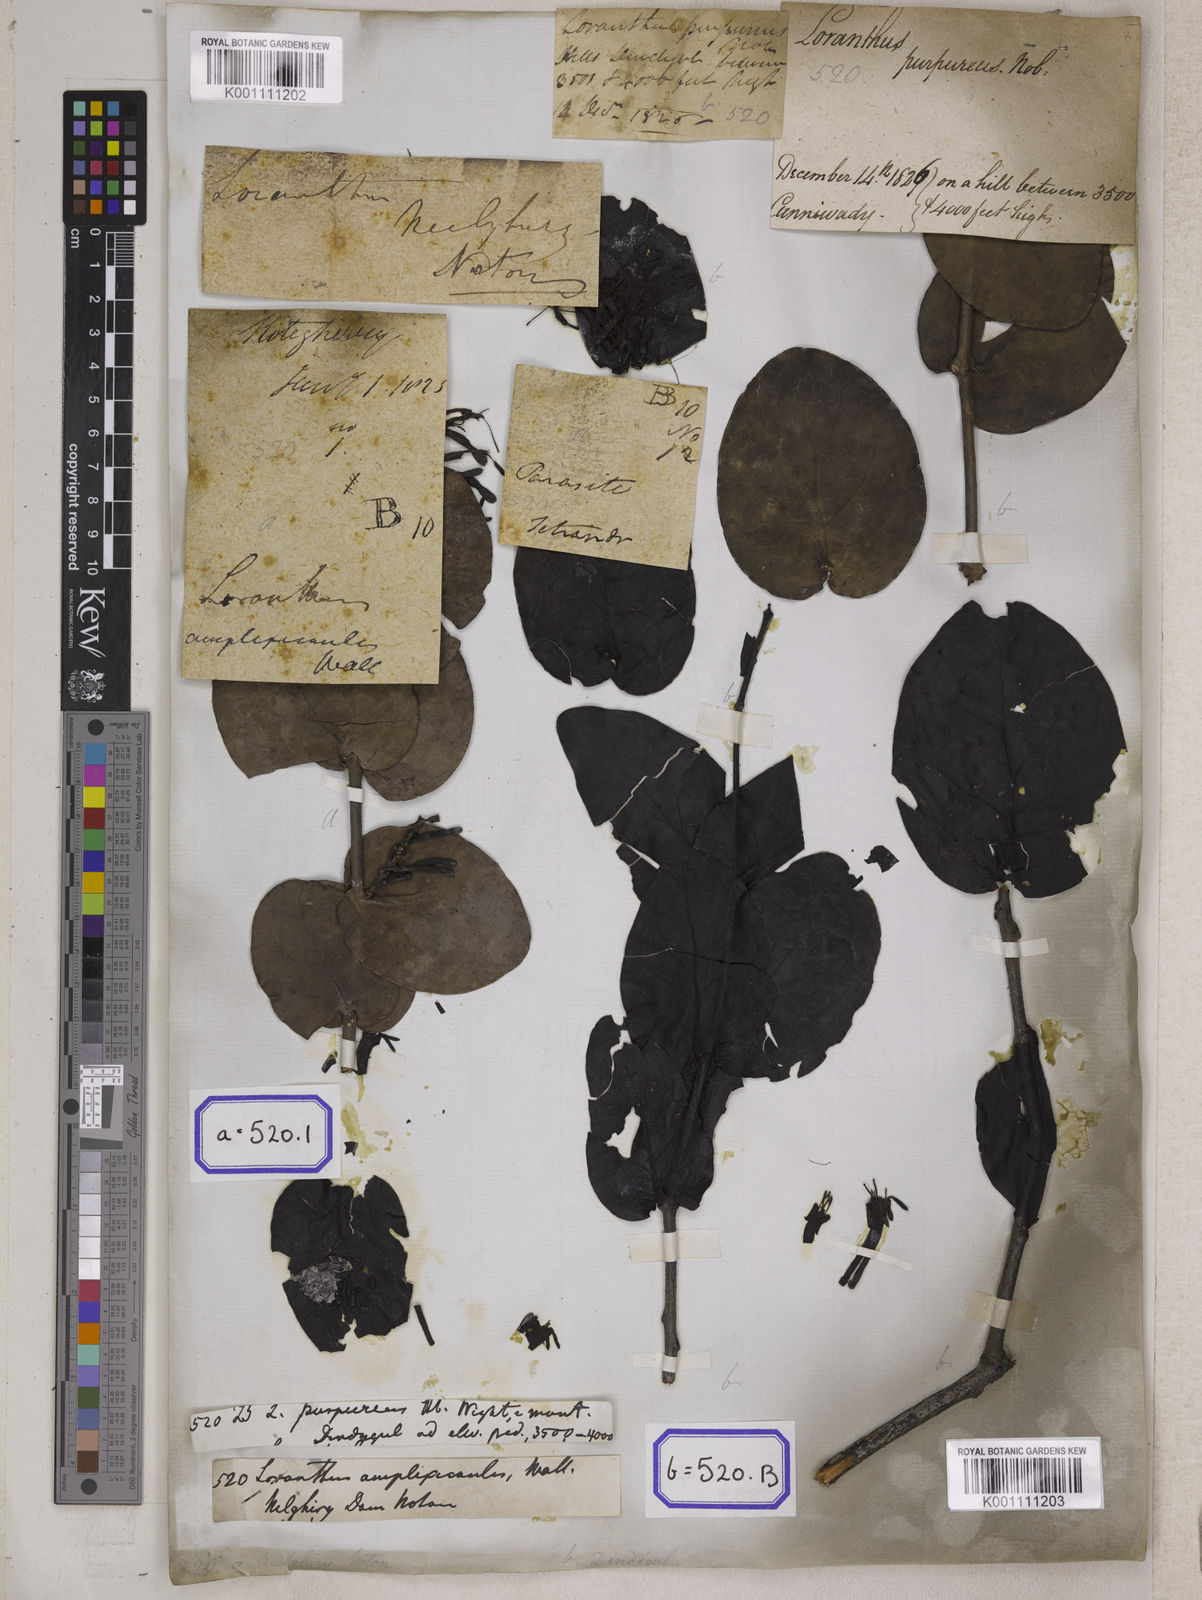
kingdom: Plantae
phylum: Tracheophyta
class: Magnoliopsida
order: Santalales
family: Loranthaceae
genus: Loranthus
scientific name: Loranthus
